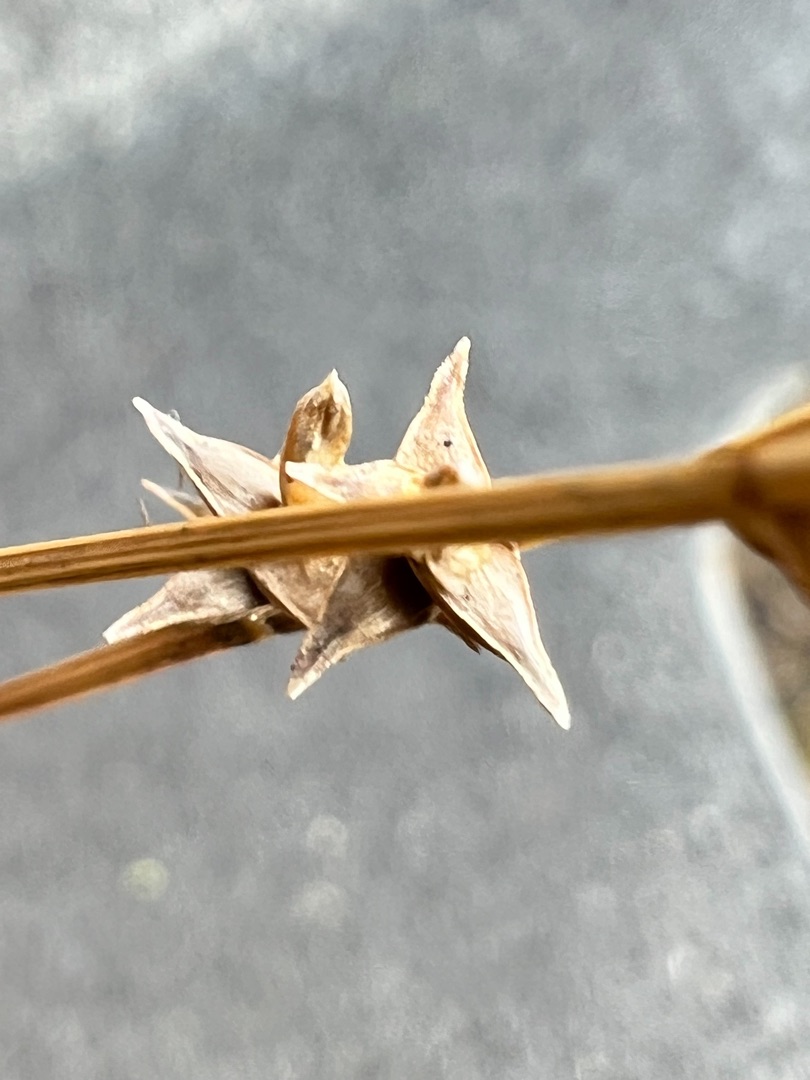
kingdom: Plantae
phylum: Tracheophyta
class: Liliopsida
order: Poales
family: Cyperaceae
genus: Carex
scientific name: Carex echinata
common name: Stjerne-star
